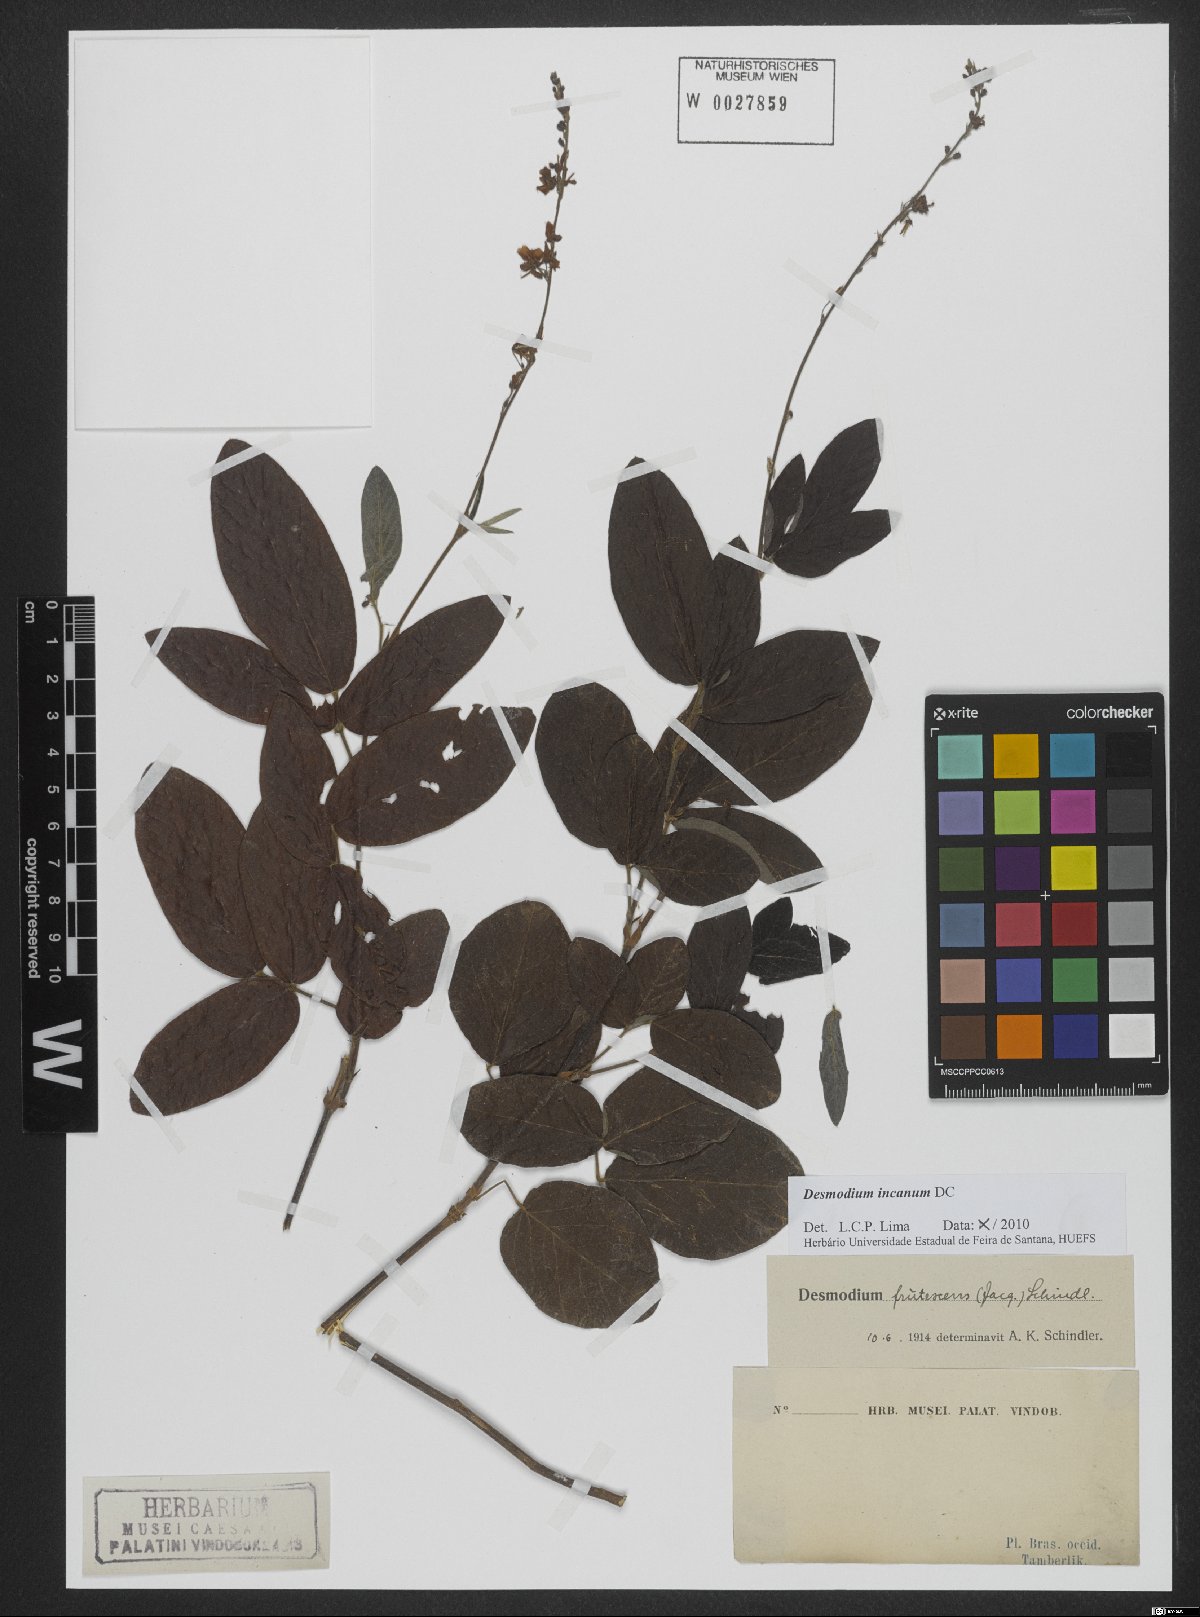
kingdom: Plantae
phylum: Tracheophyta
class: Magnoliopsida
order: Fabales
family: Fabaceae
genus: Desmodium
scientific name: Desmodium incanum
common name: Tickclover
